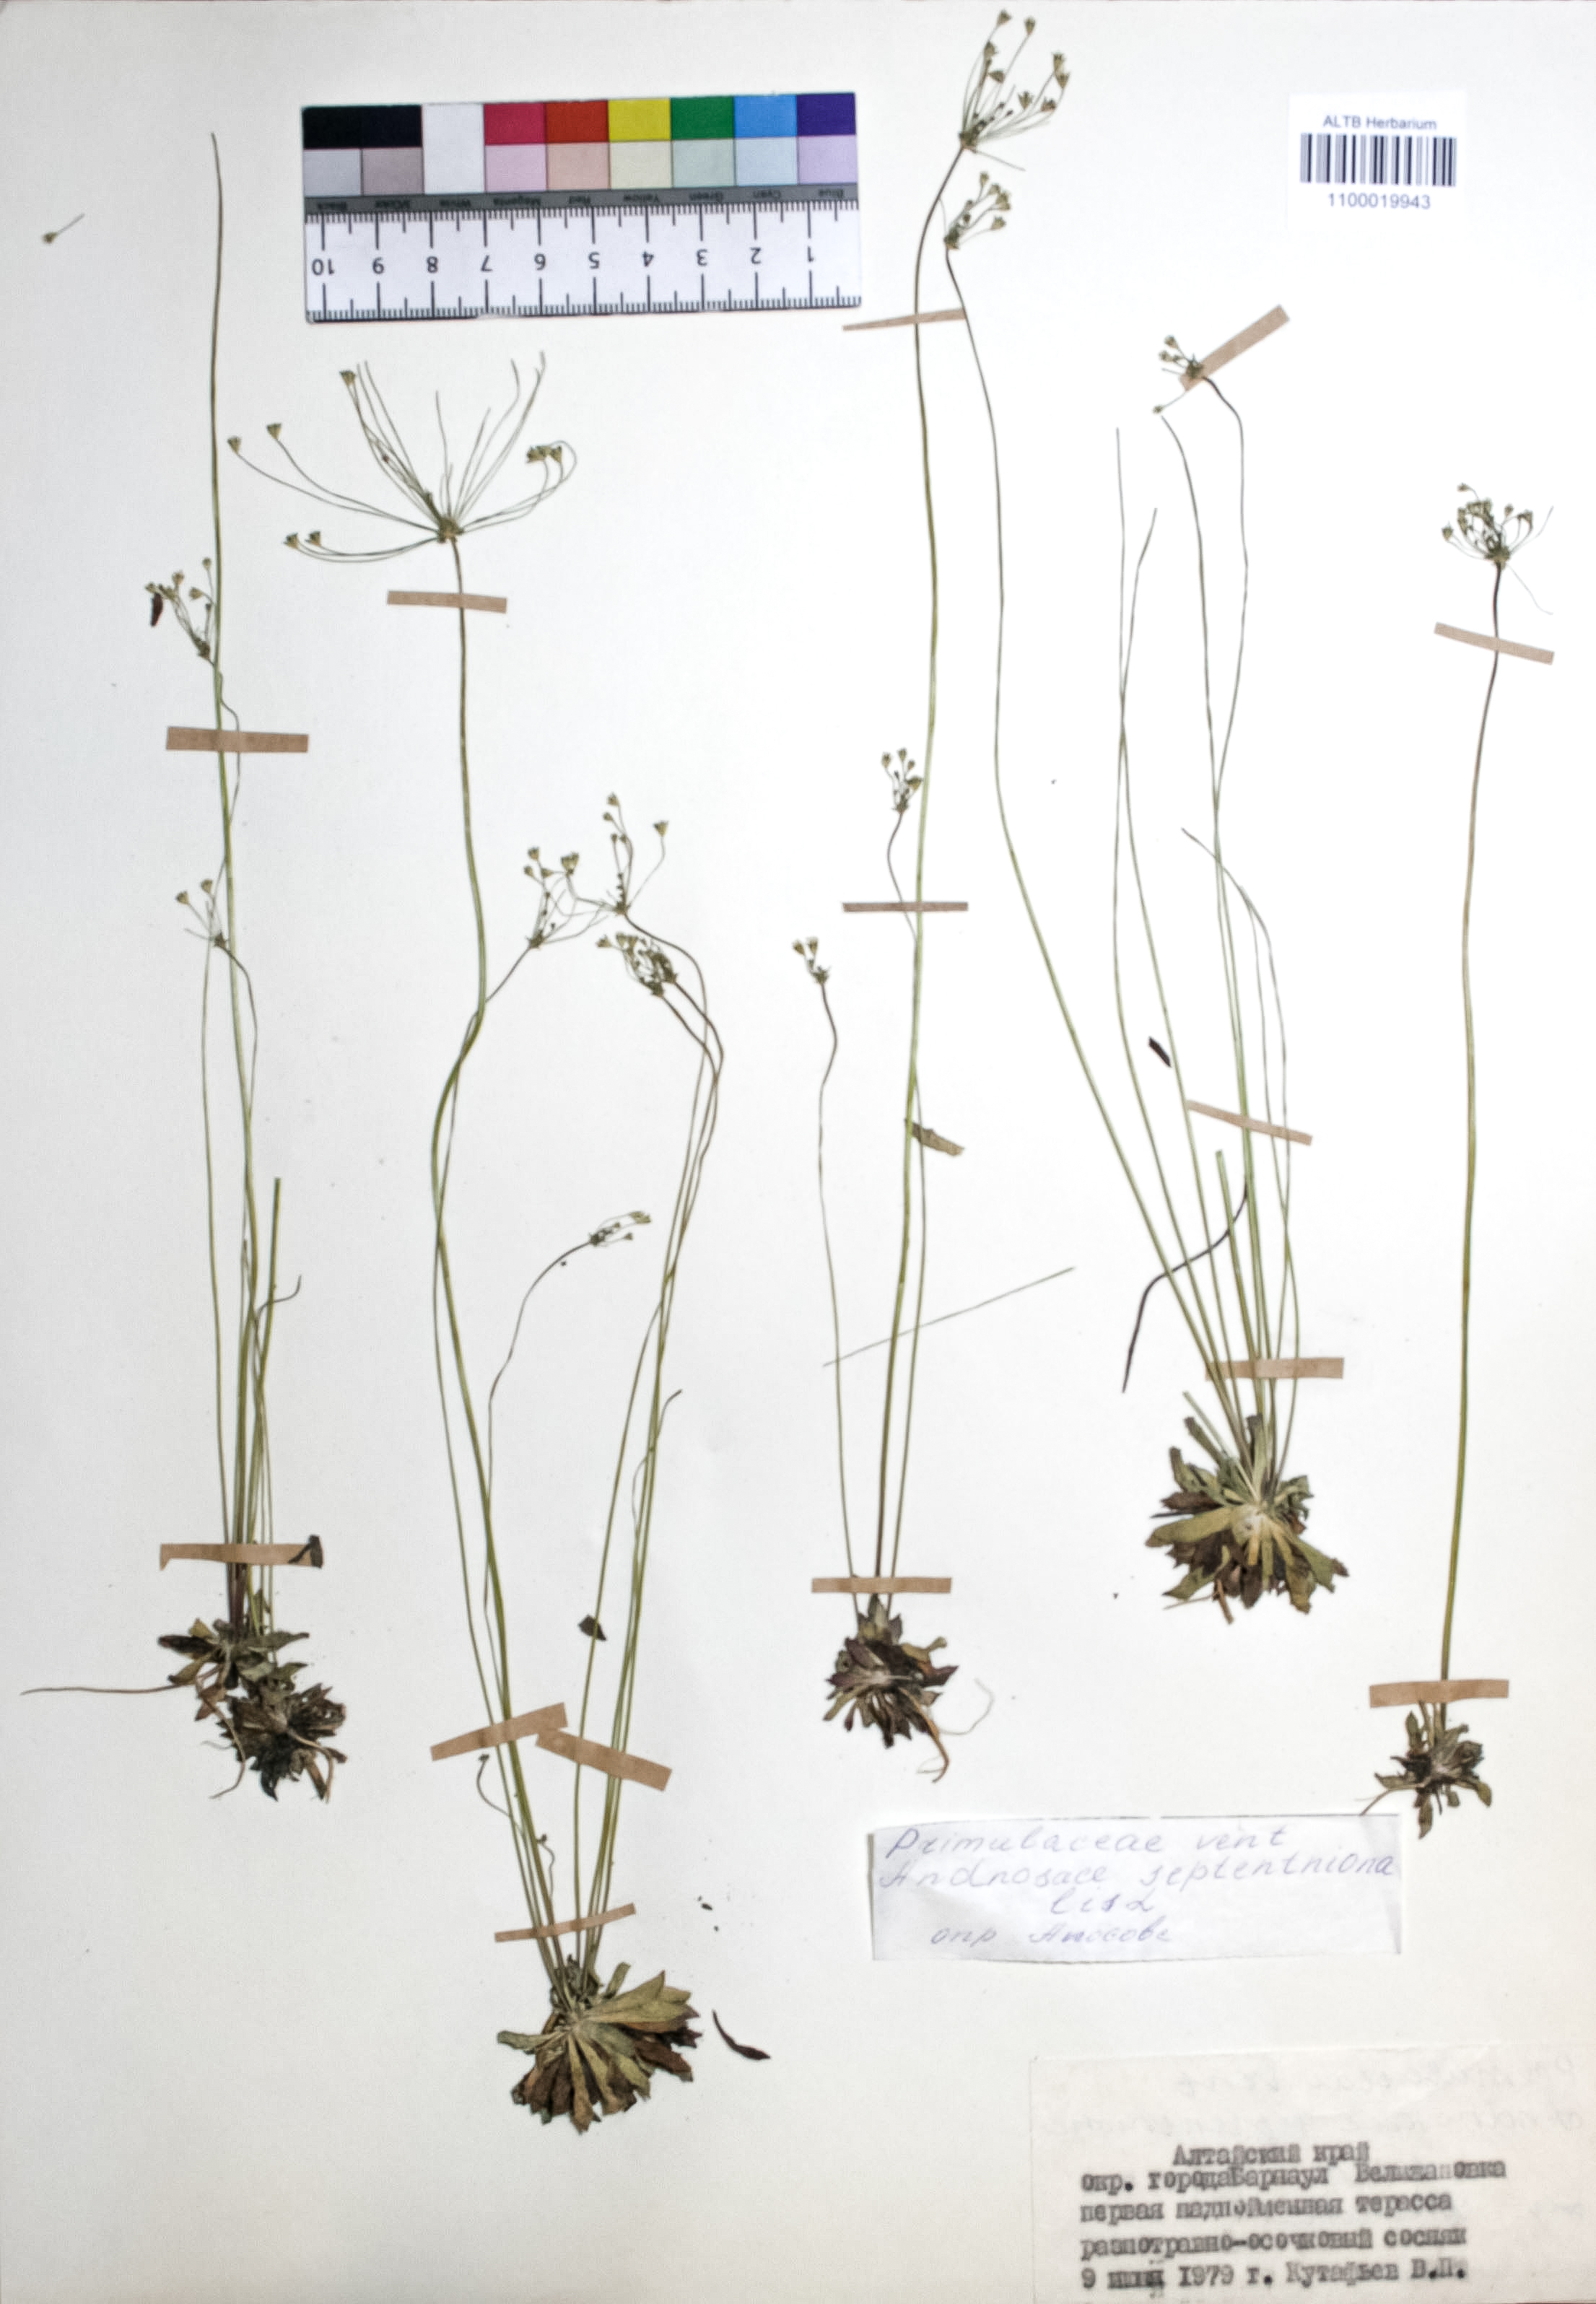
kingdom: Plantae
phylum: Tracheophyta
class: Magnoliopsida
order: Ericales
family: Primulaceae
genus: Androsace
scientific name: Androsace septentrionalis
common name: Hairy northern fairy-candelabra
